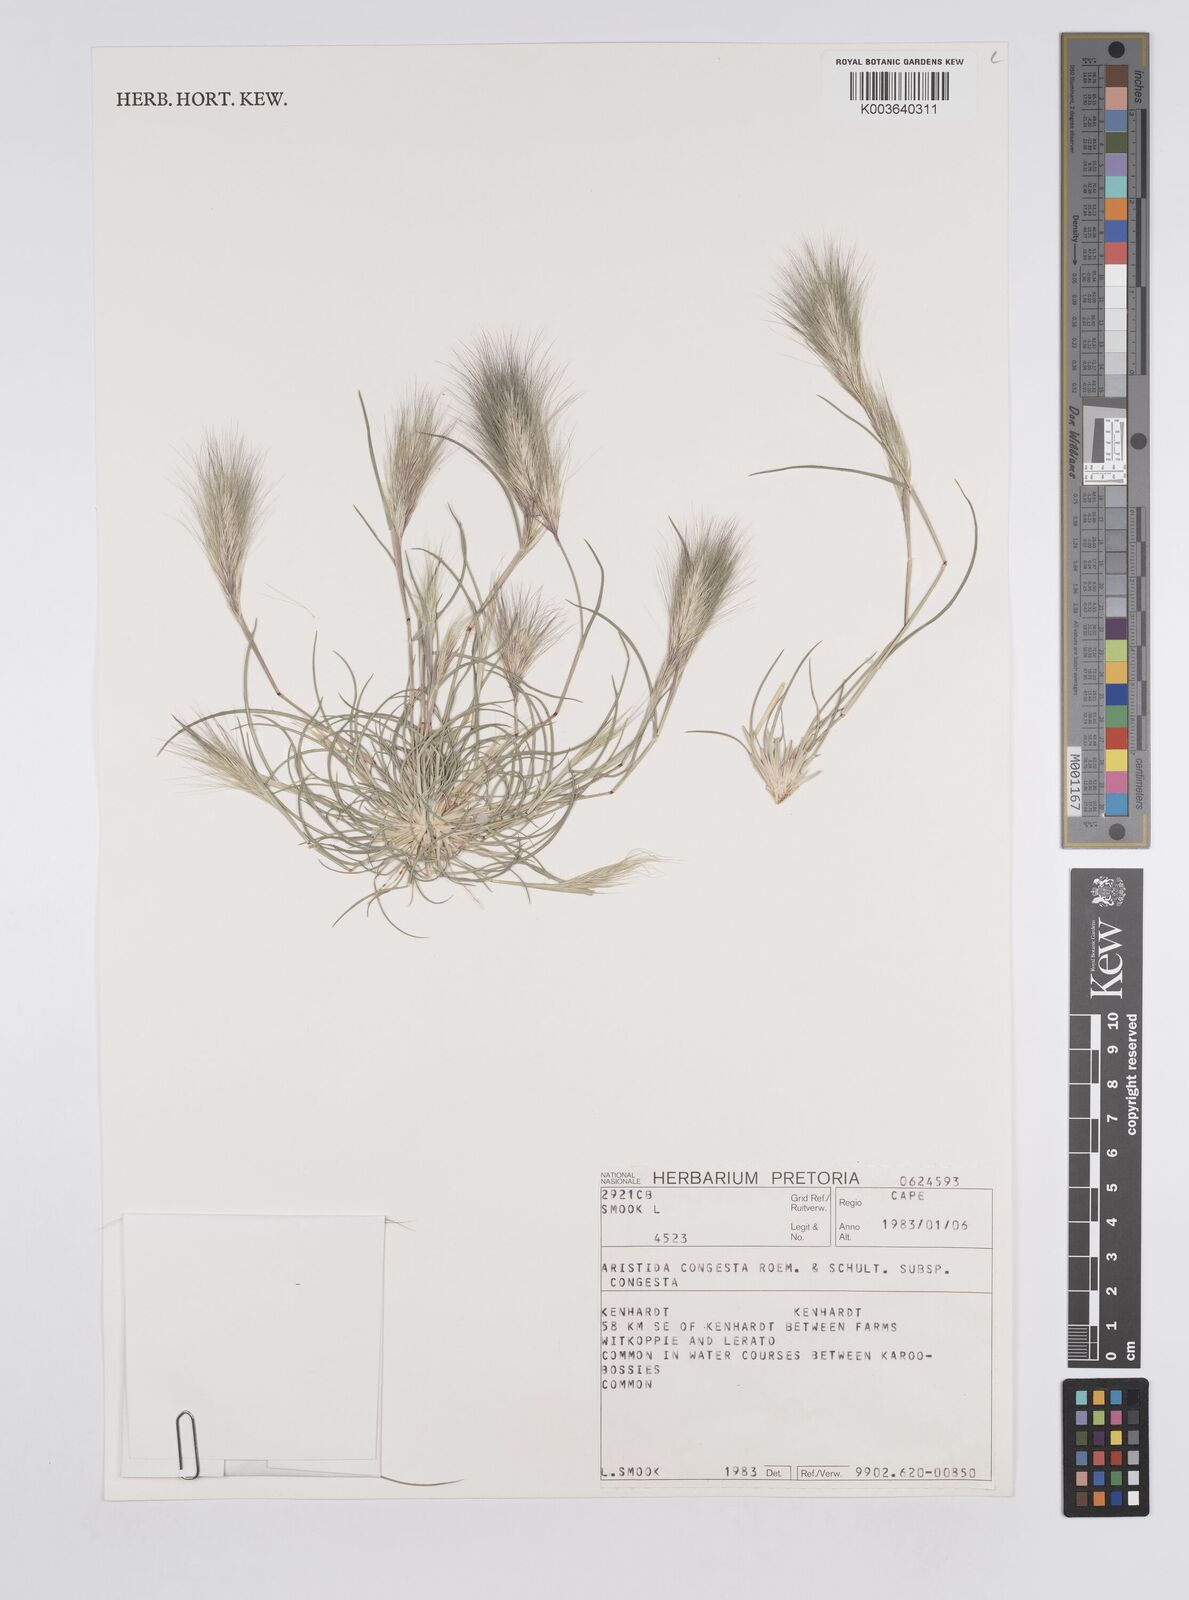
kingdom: Plantae
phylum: Tracheophyta
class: Liliopsida
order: Poales
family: Poaceae
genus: Aristida
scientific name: Aristida congesta
